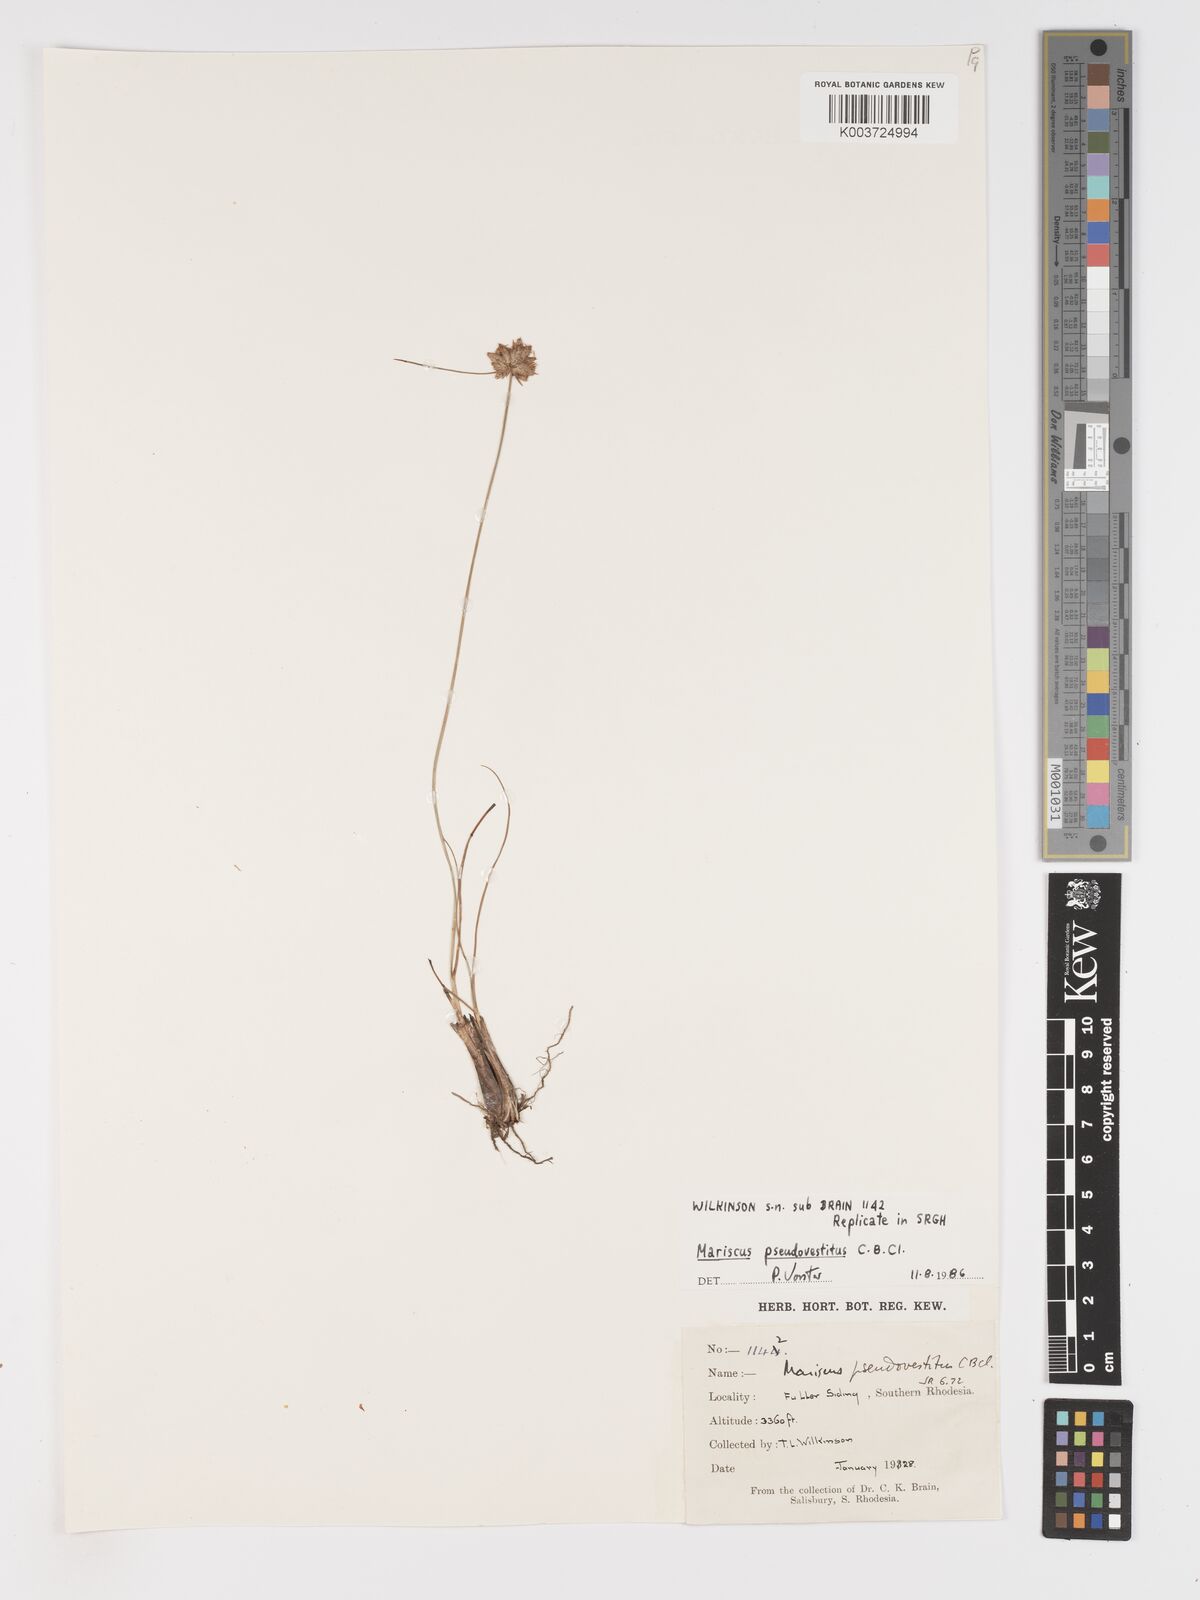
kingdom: Plantae
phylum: Tracheophyta
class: Liliopsida
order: Poales
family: Cyperaceae
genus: Cyperus
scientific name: Cyperus pseudovestitus
